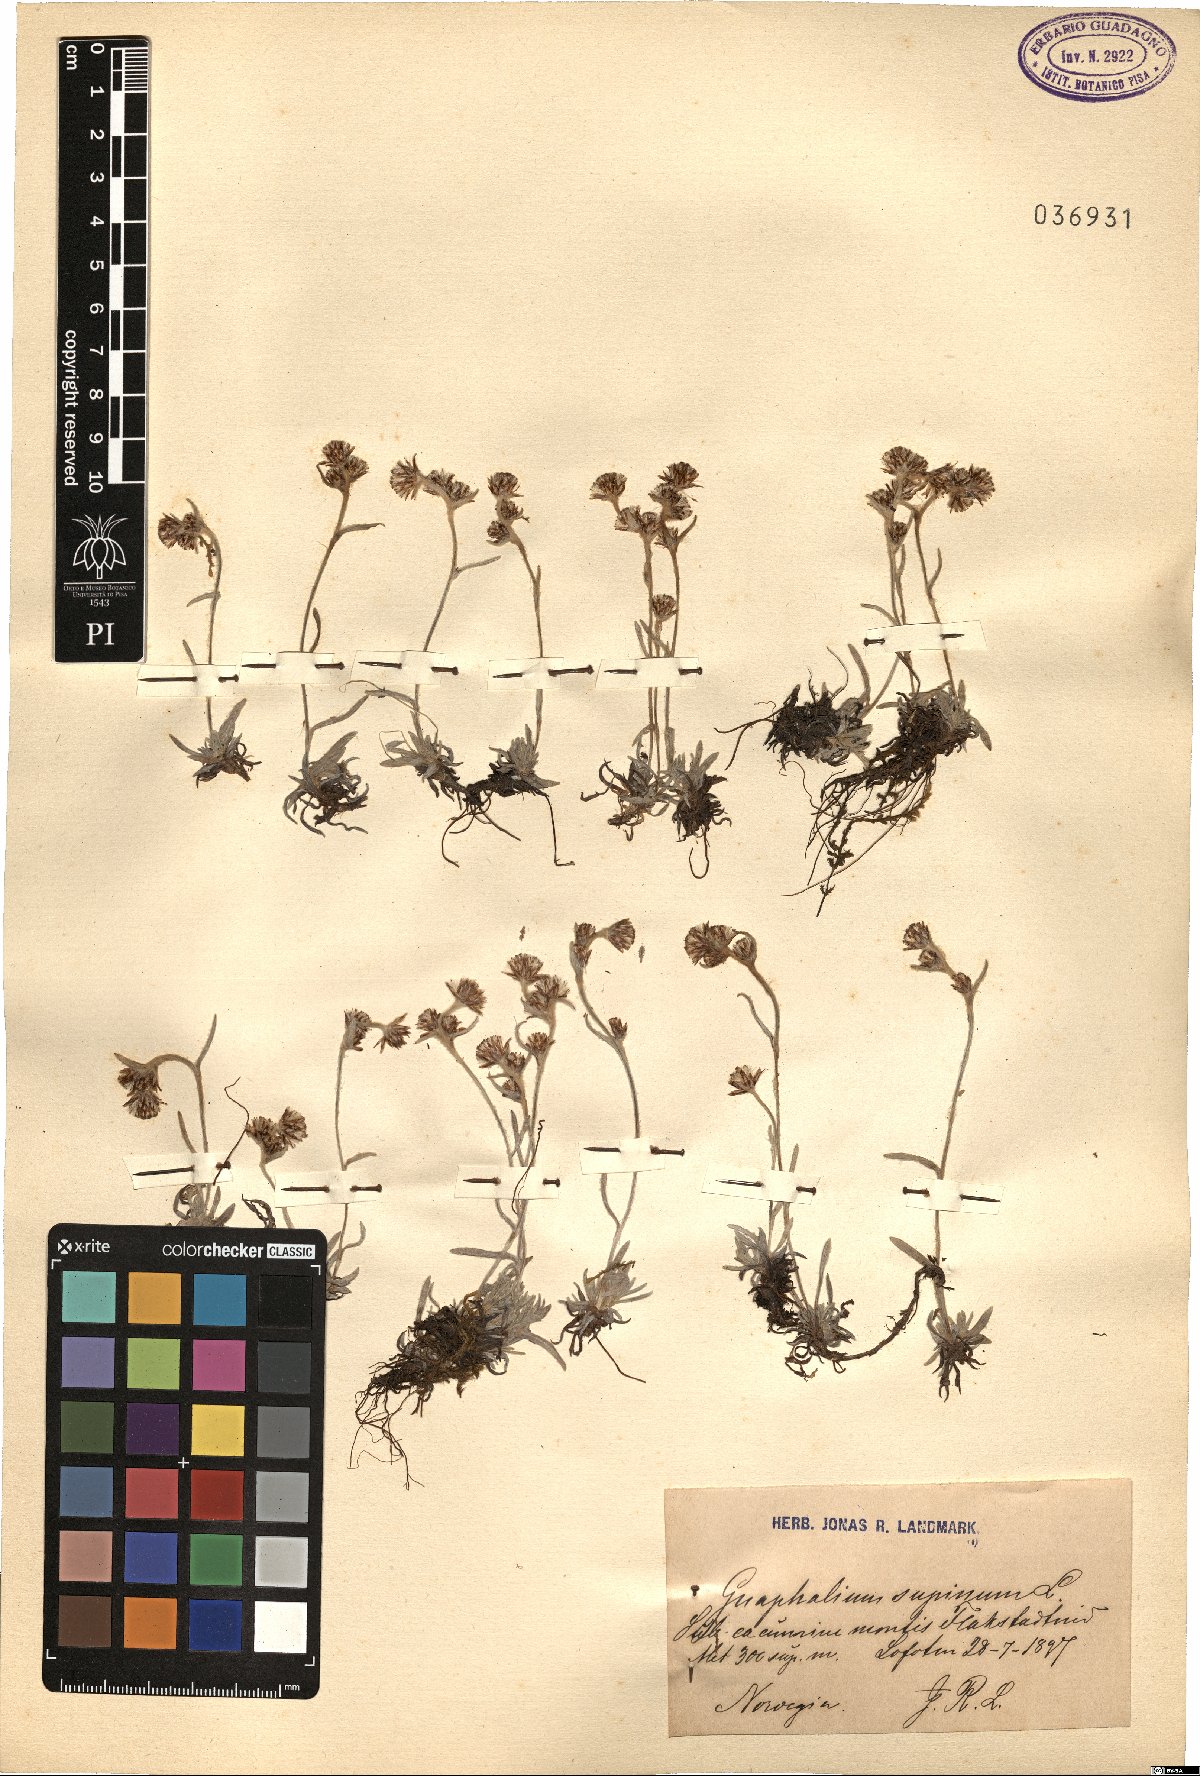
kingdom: Plantae
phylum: Tracheophyta
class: Magnoliopsida
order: Asterales
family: Asteraceae
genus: Omalotheca
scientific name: Omalotheca supina
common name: Alpine arctic-cudweed
